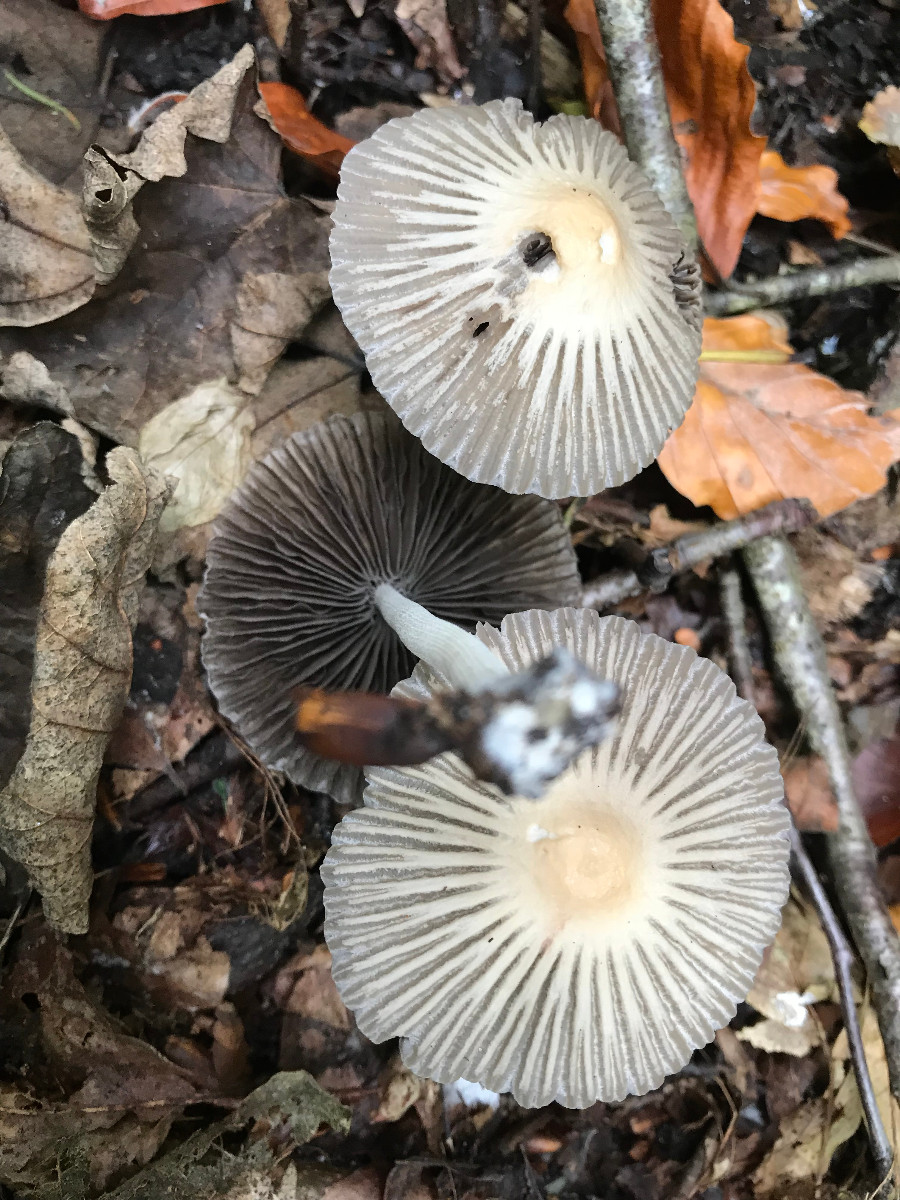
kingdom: Fungi
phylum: Basidiomycota
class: Agaricomycetes
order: Agaricales
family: Psathyrellaceae
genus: Coprinellus
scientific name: Coprinellus
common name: blækhat
